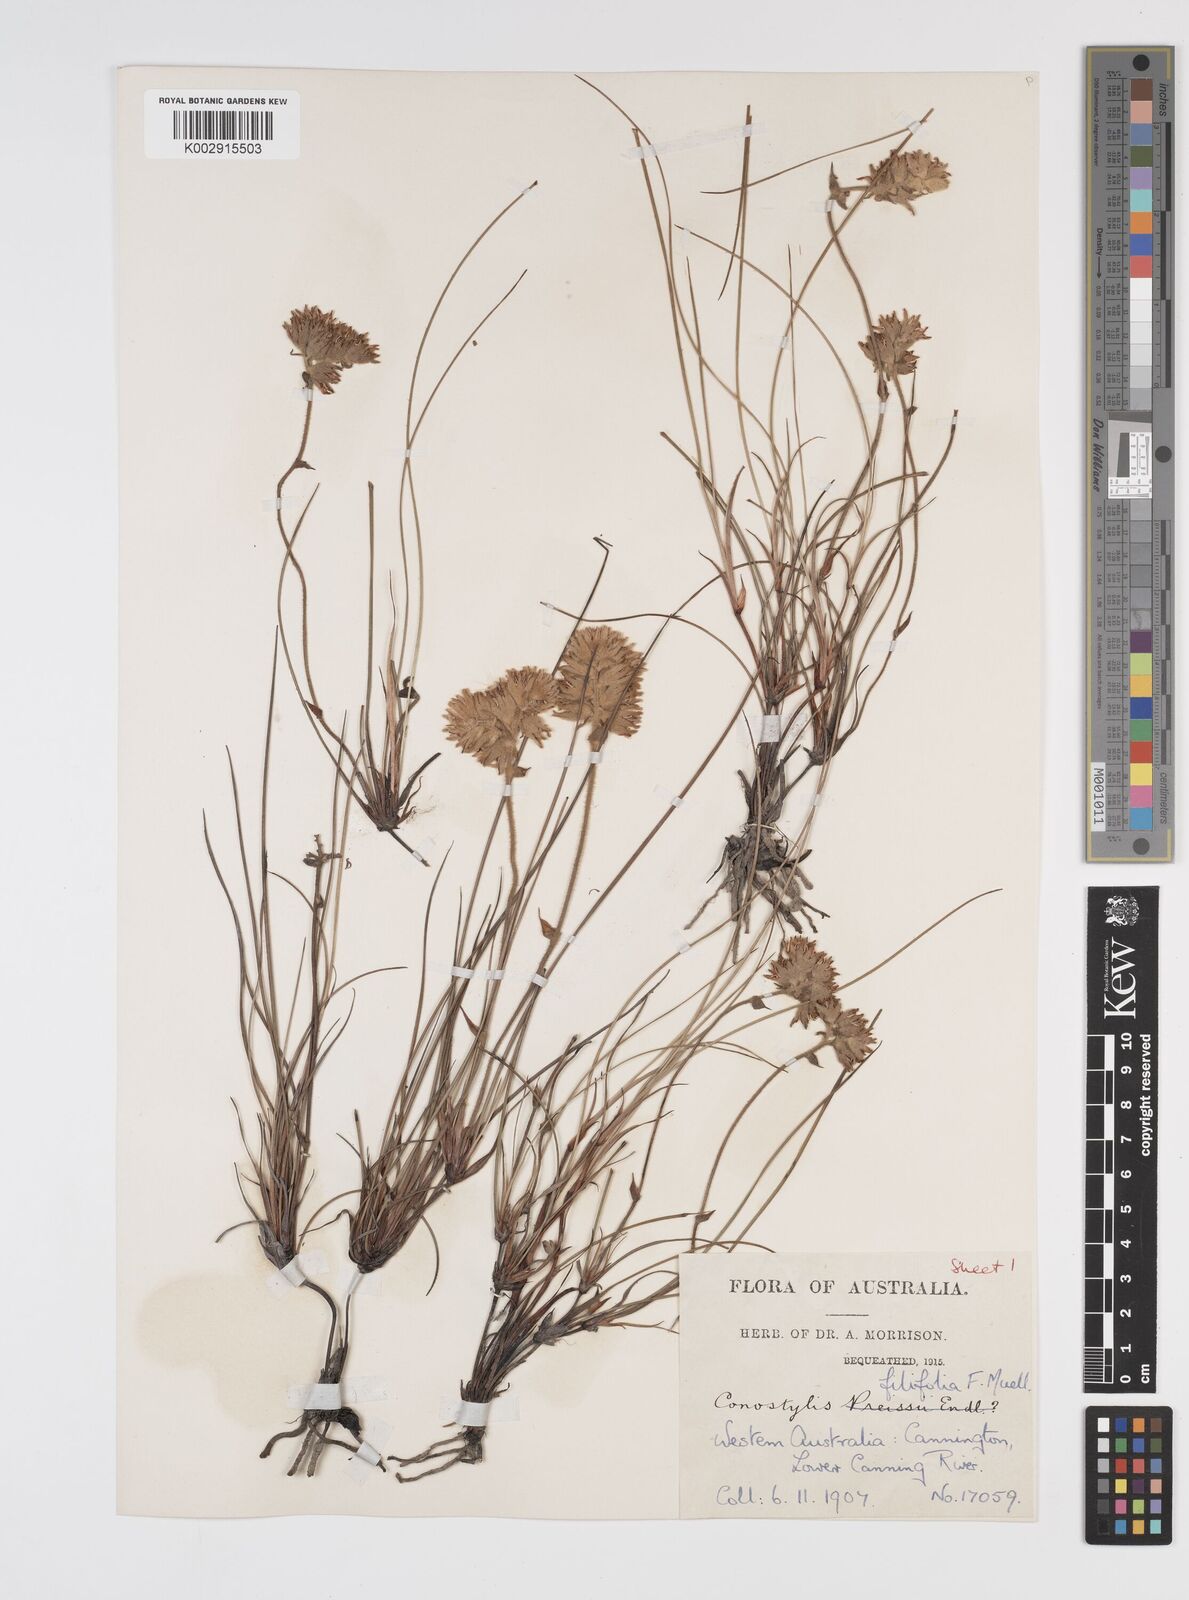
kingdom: Plantae
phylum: Tracheophyta
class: Liliopsida
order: Commelinales
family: Haemodoraceae
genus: Conostylis
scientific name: Conostylis festucacea
